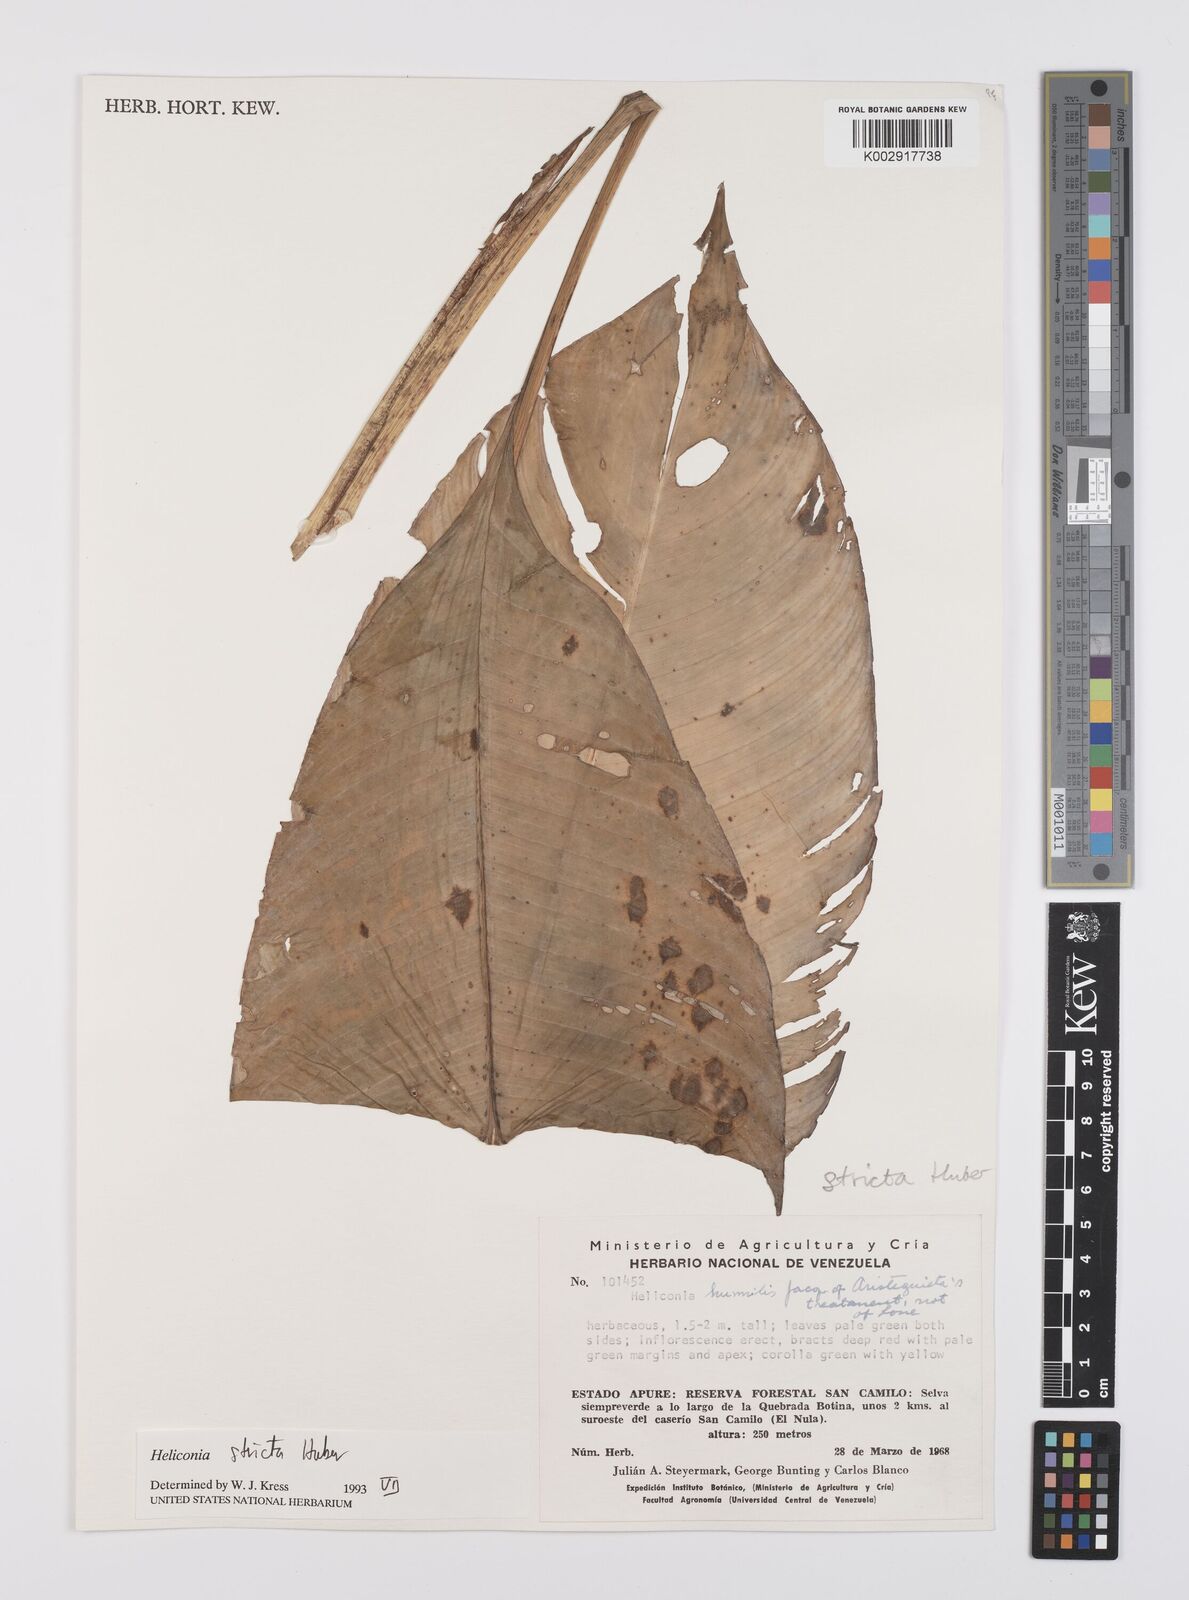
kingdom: Plantae
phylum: Tracheophyta
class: Liliopsida
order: Zingiberales
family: Heliconiaceae
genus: Heliconia
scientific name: Heliconia stricta
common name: Small lobster claw
